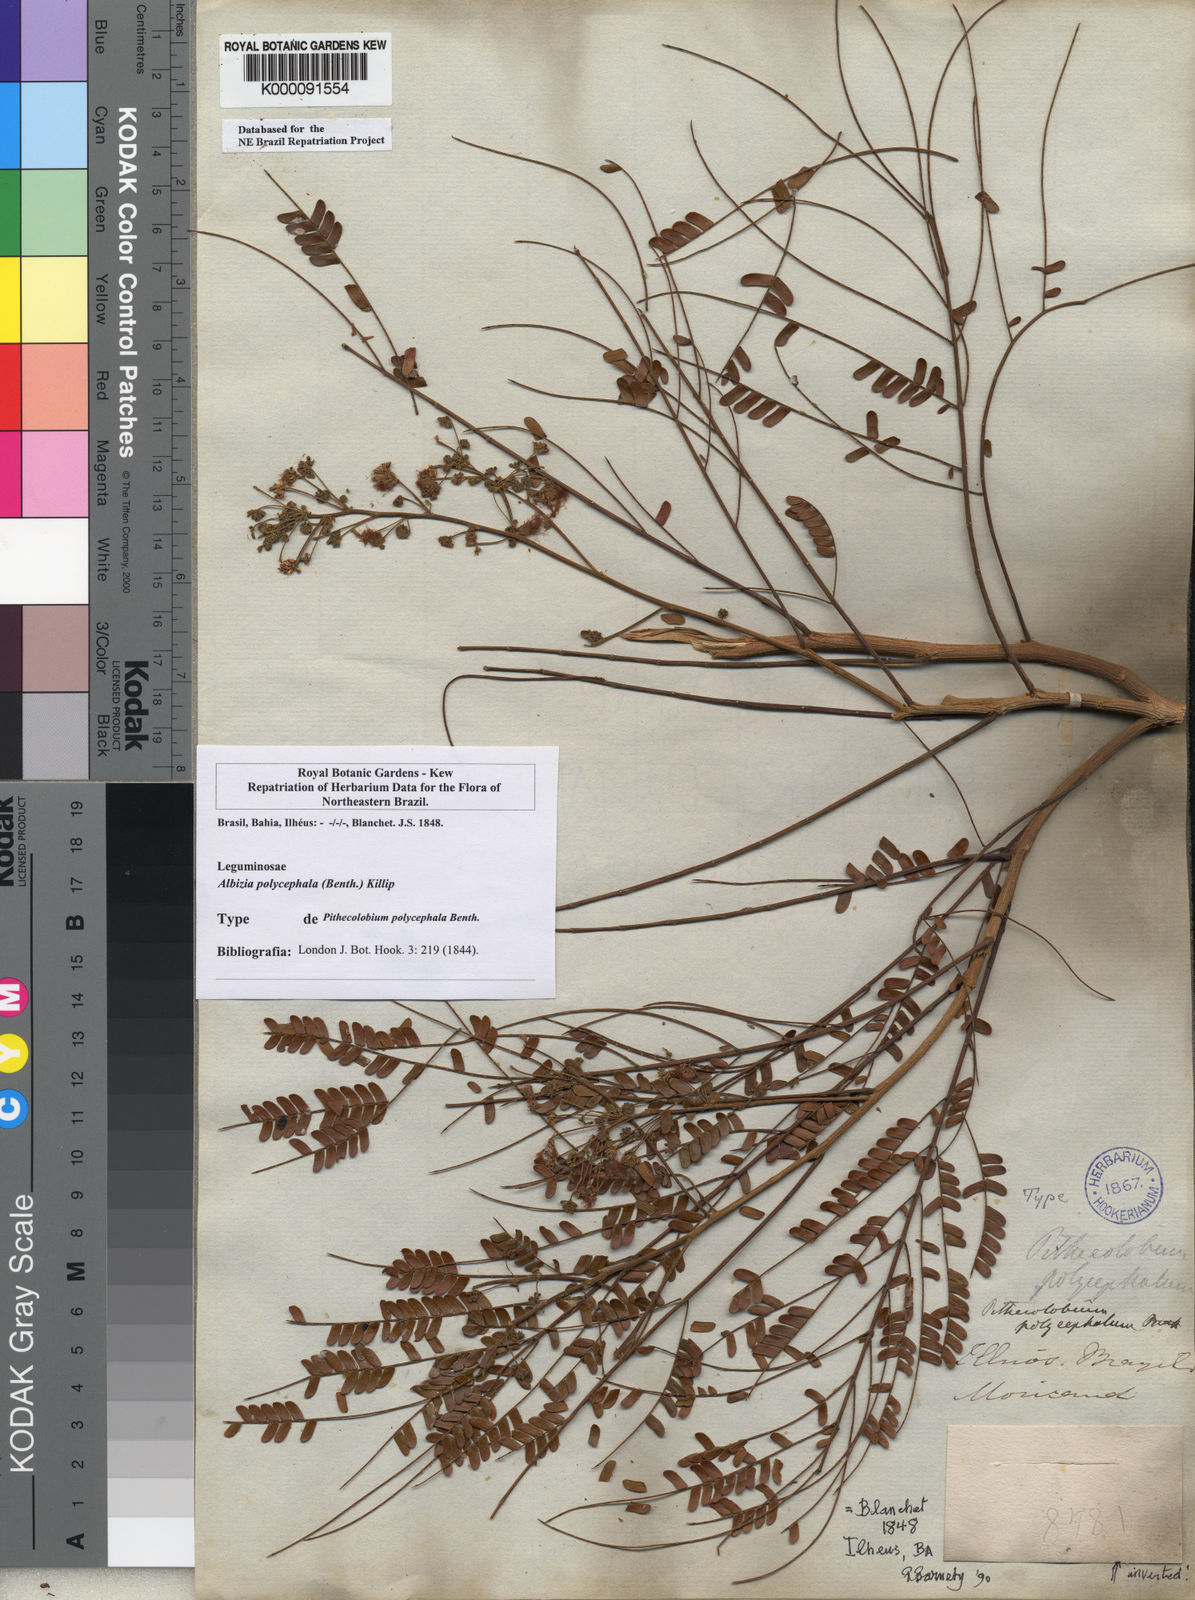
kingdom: Plantae
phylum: Tracheophyta
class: Magnoliopsida
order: Fabales
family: Fabaceae
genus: Albizia
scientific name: Albizia polycephala
